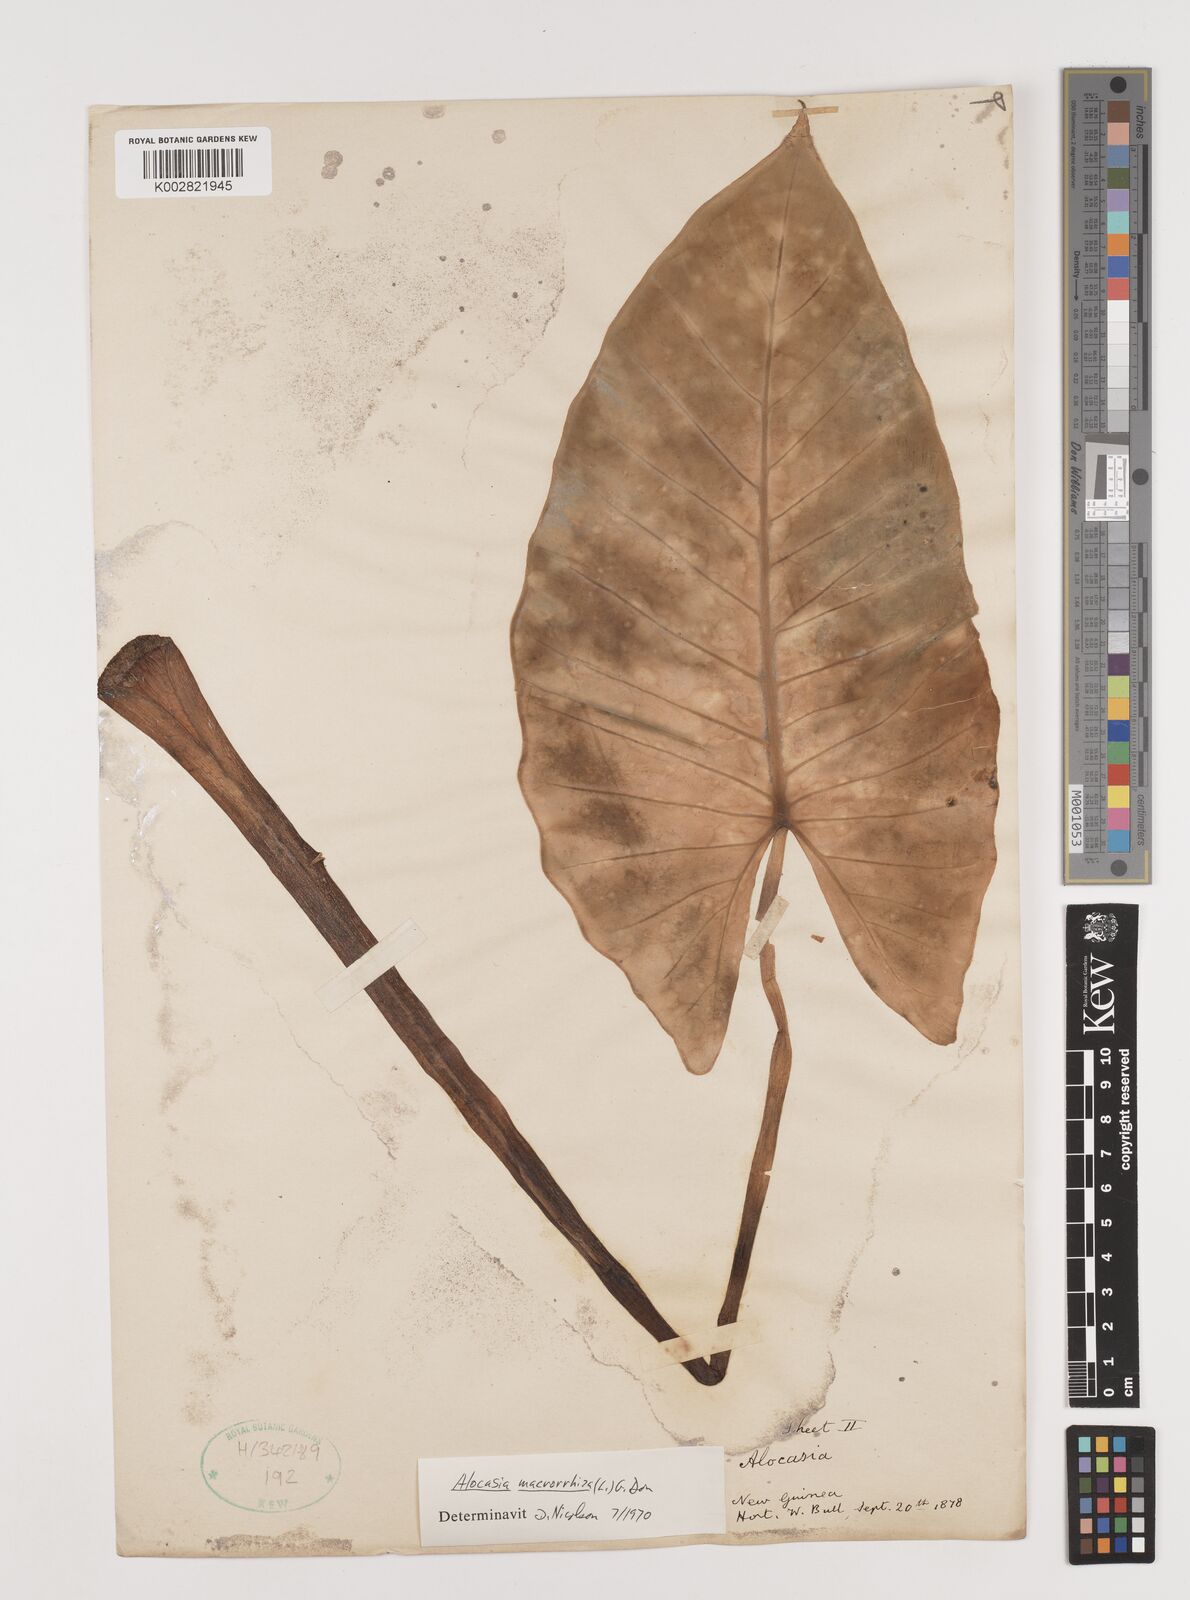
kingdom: Plantae
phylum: Tracheophyta
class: Liliopsida
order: Alismatales
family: Araceae
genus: Alocasia
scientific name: Alocasia macrorrhizos
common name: Giant taro
